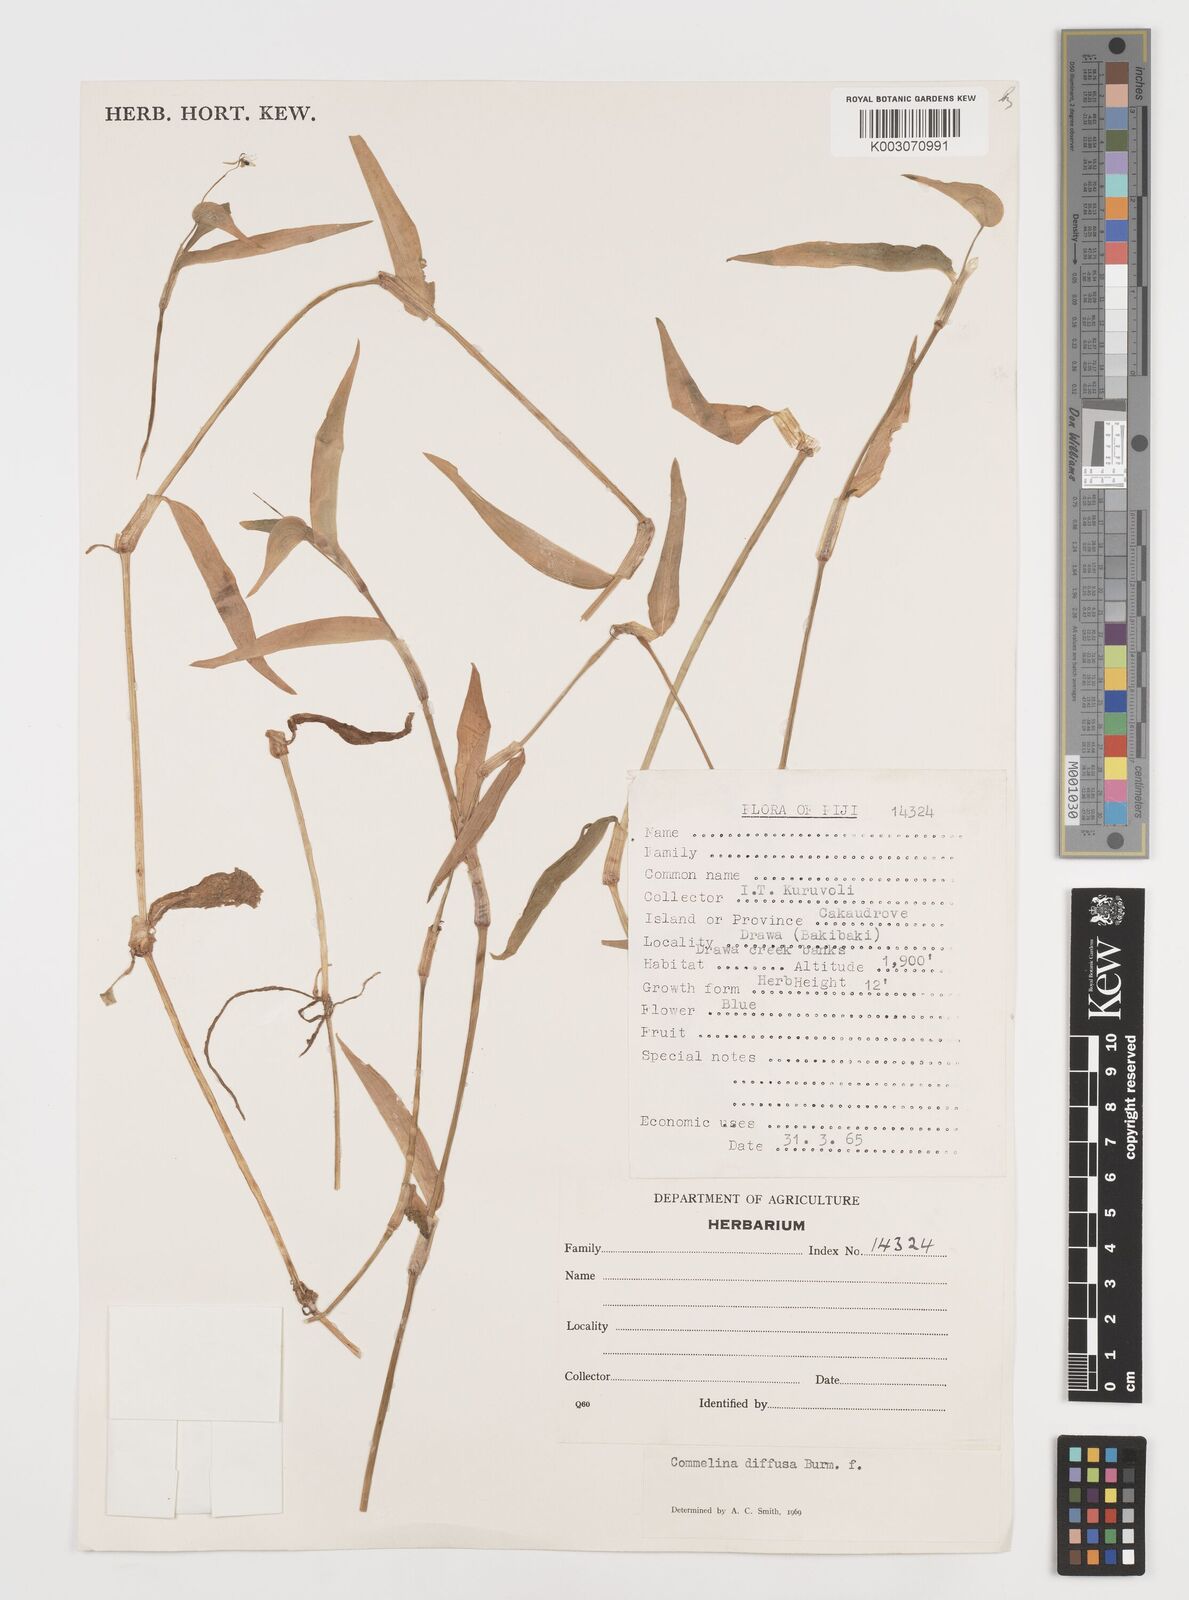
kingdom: Plantae
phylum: Tracheophyta
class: Liliopsida
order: Commelinales
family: Commelinaceae
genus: Commelina
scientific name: Commelina diffusa
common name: Climbing dayflower
